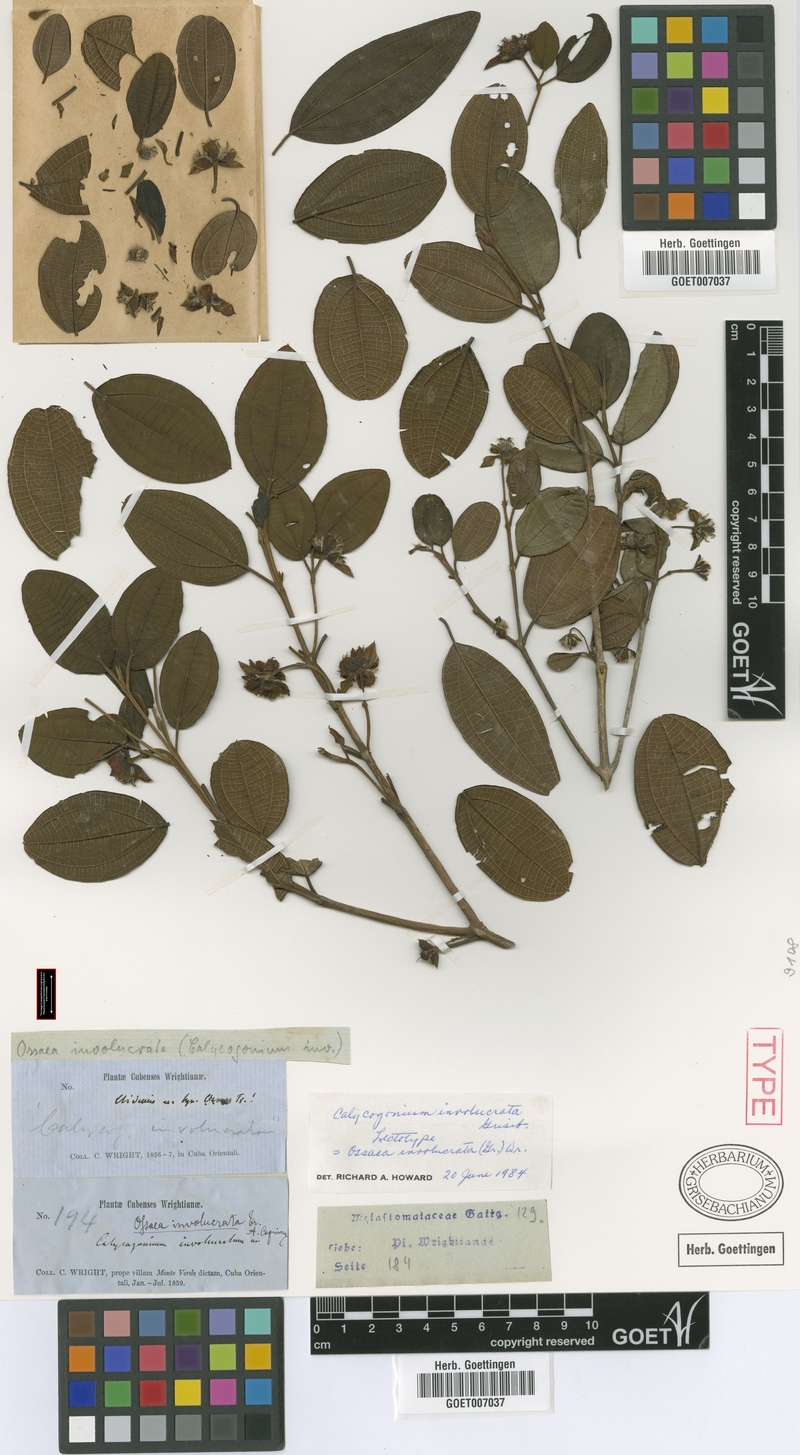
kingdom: Plantae
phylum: Tracheophyta
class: Magnoliopsida
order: Myrtales
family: Melastomataceae
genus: Miconia
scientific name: Miconia grandibracteata
